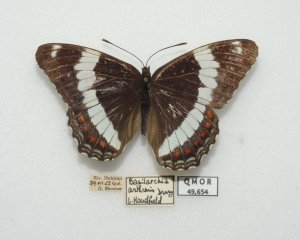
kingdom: Animalia
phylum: Arthropoda
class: Insecta
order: Lepidoptera
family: Nymphalidae
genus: Limenitis
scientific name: Limenitis arthemis
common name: Red-spotted Admiral
